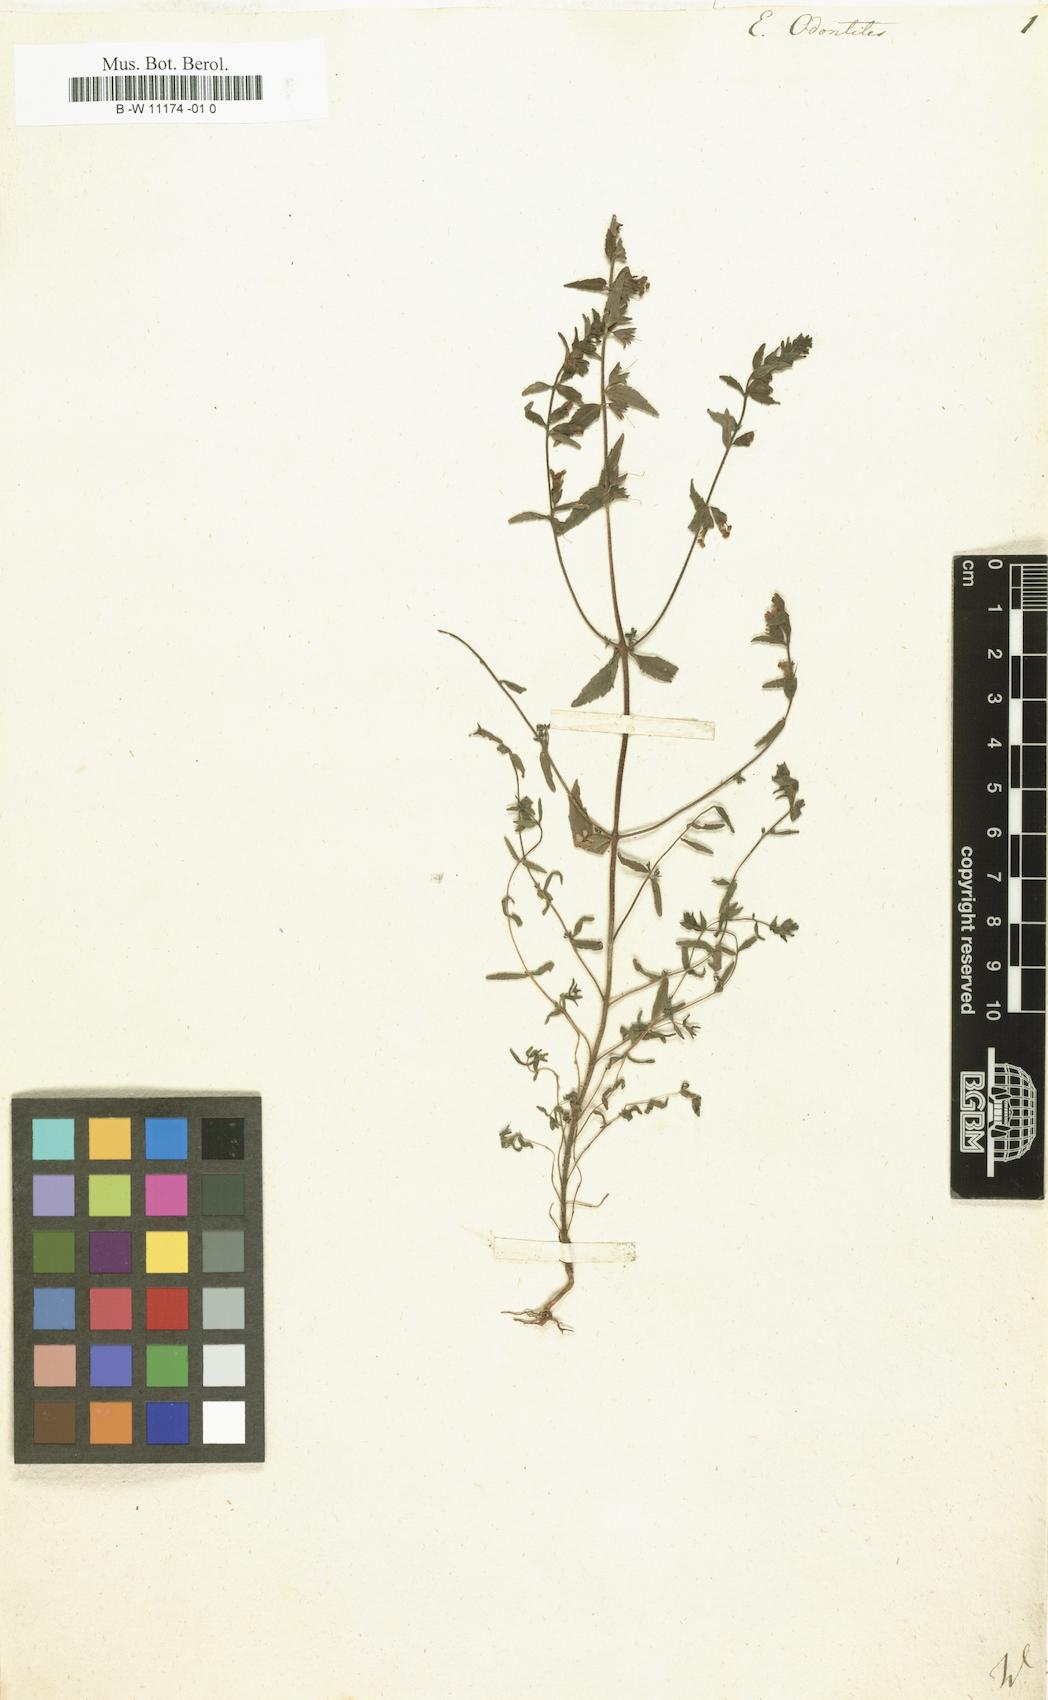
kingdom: Plantae
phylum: Tracheophyta
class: Magnoliopsida
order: Lamiales
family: Orobanchaceae
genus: Odontites
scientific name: Odontites vulgaris
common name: Broomrape
